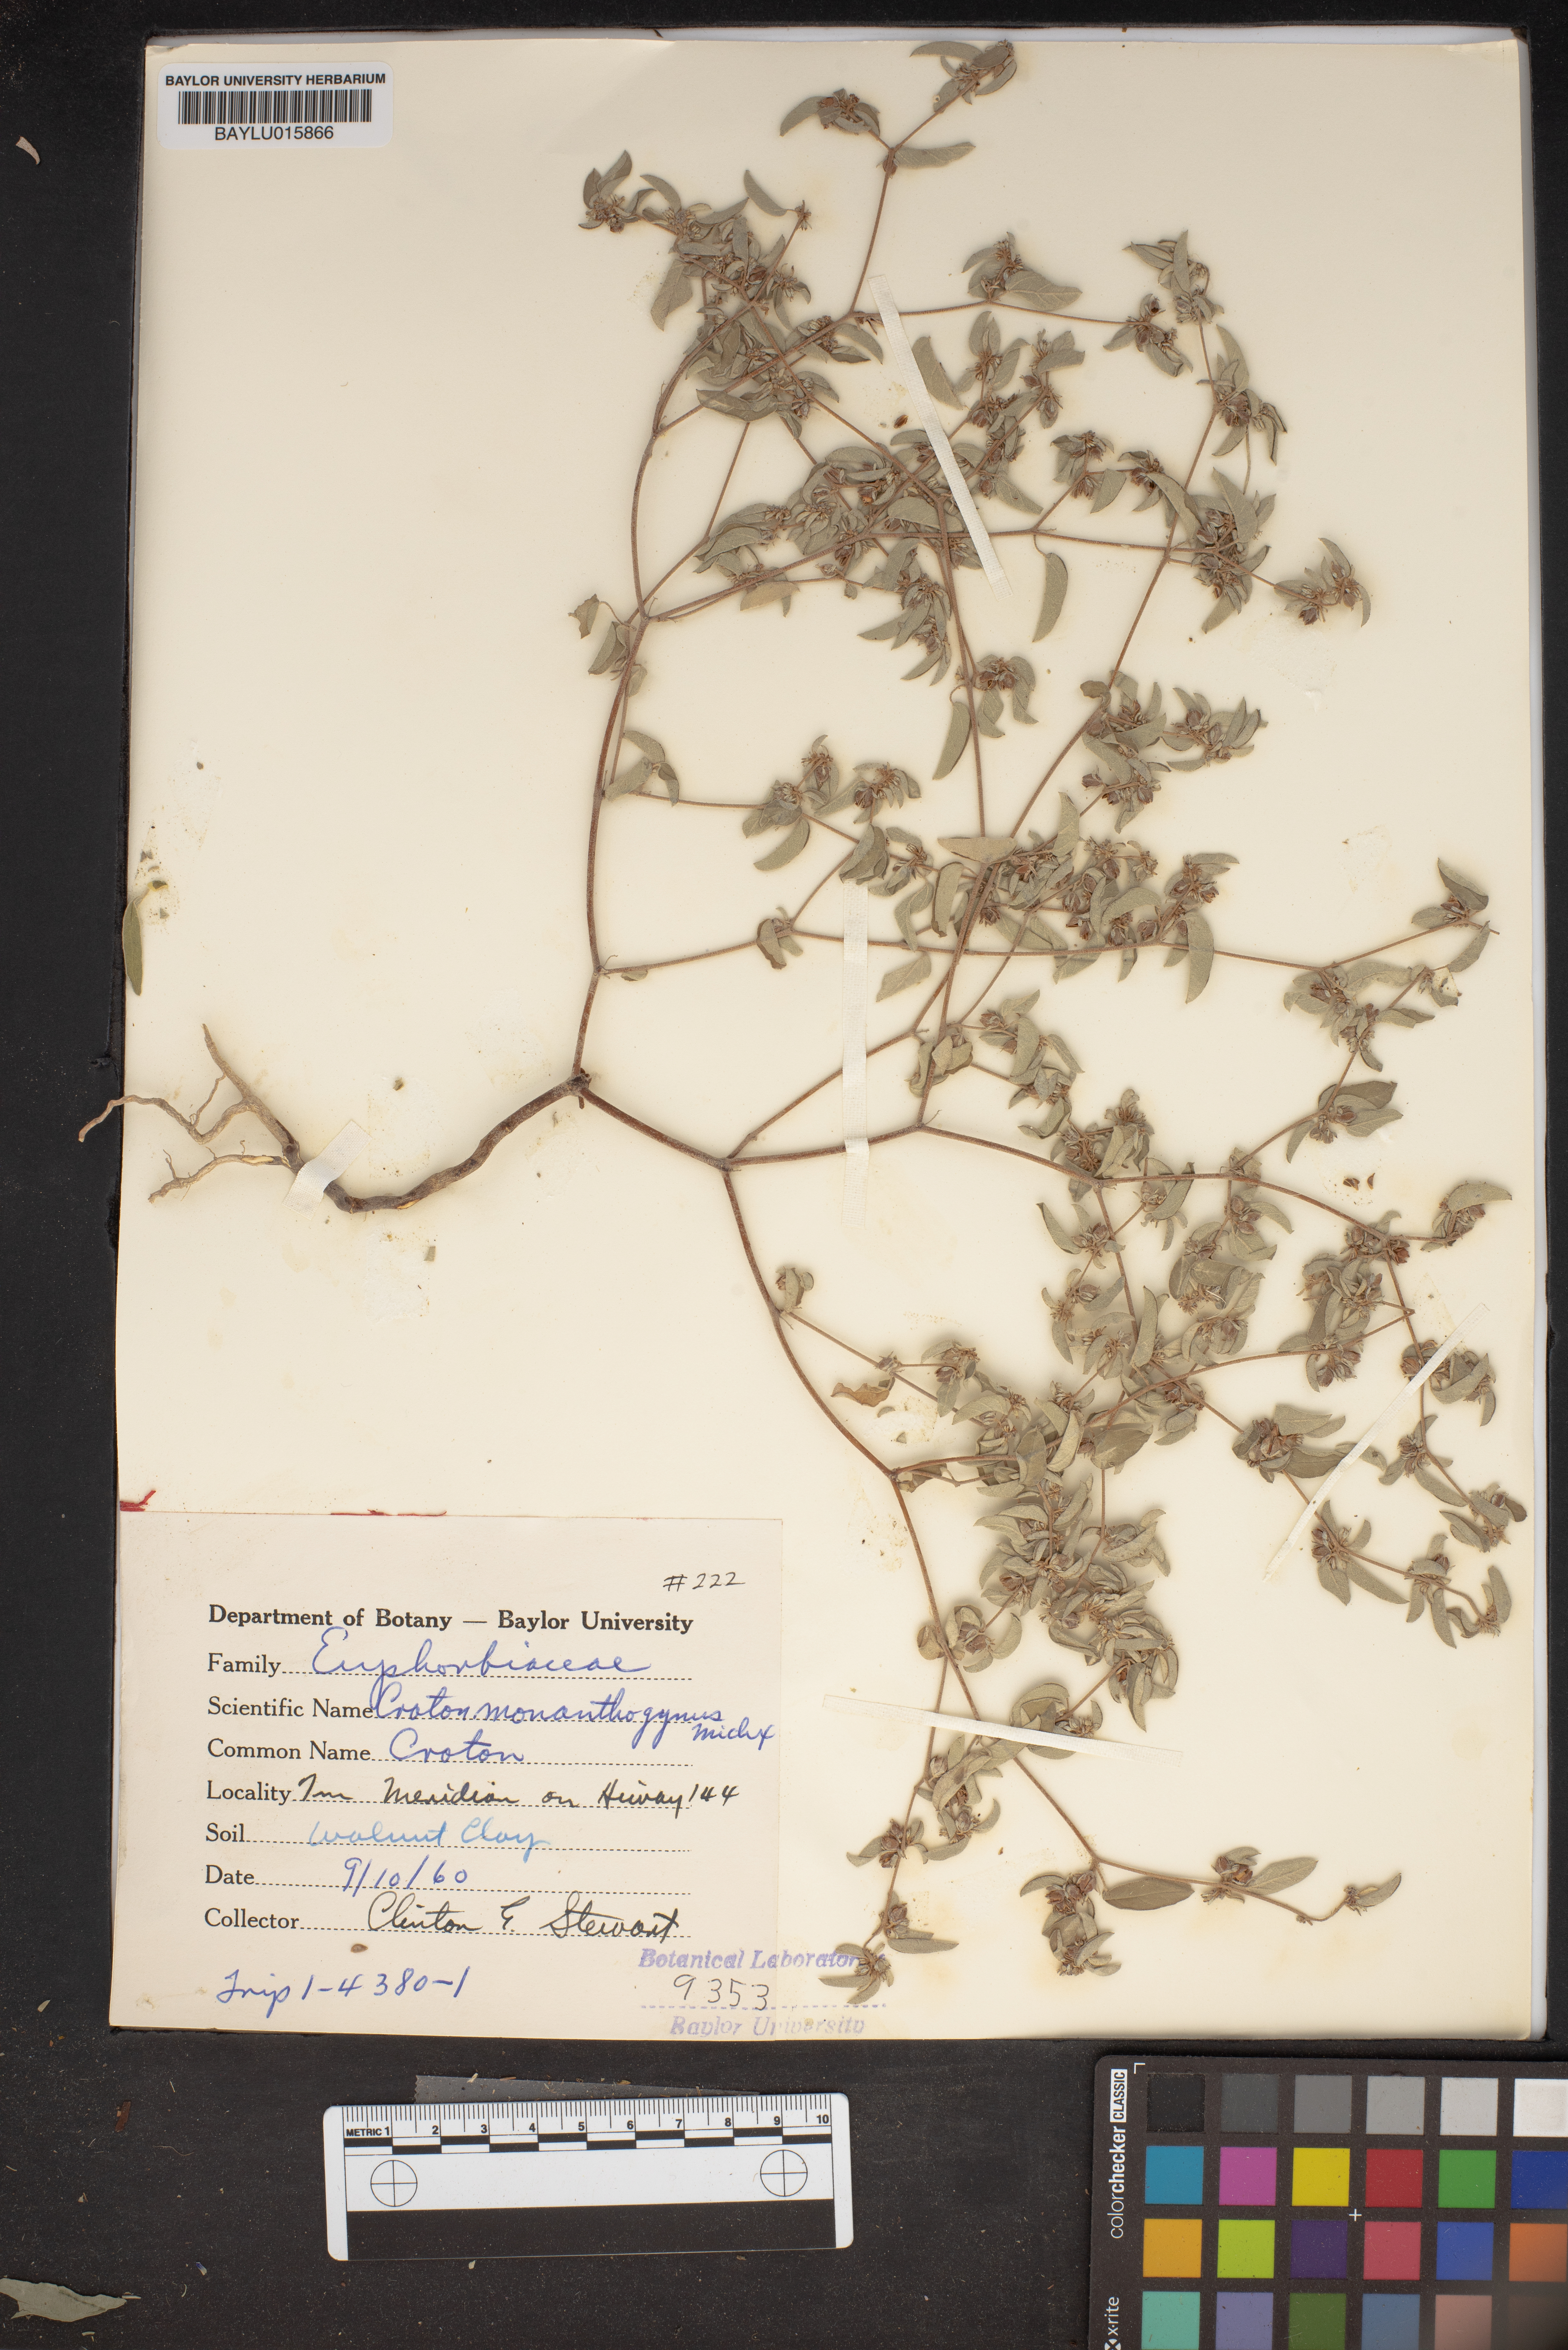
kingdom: Plantae
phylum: Tracheophyta
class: Magnoliopsida
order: Malpighiales
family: Euphorbiaceae
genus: Croton
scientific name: Croton monanthogynus
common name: One-seed croton
